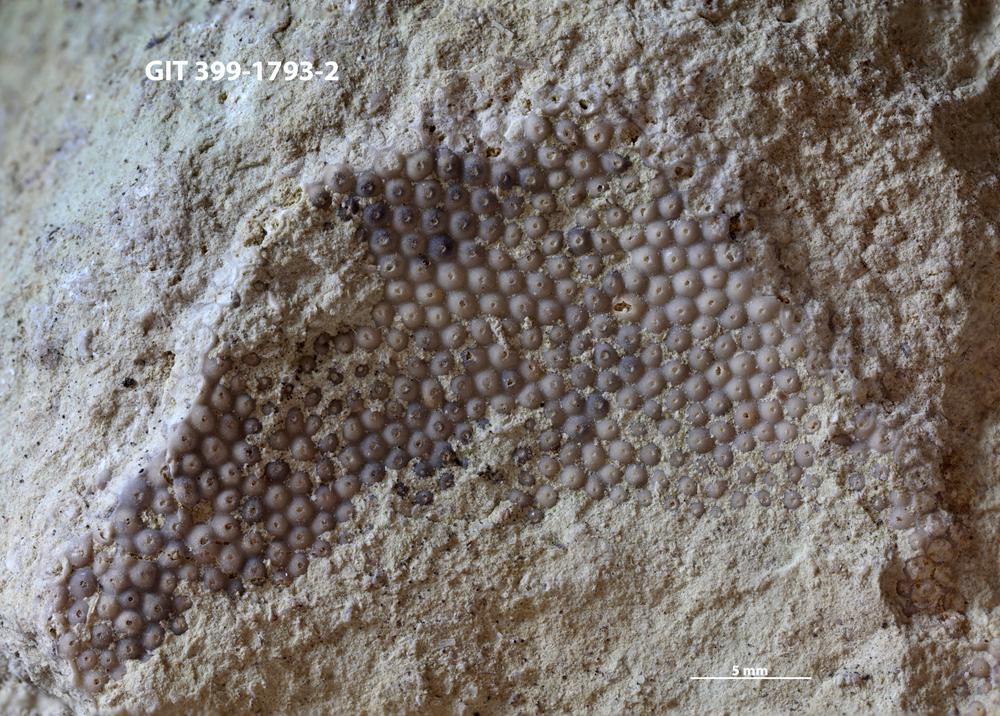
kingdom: Plantae
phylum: Chlorophyta
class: Ulvophyceae
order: Cyclocrinales
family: Cyclocrinaceae
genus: Mastopora
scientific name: Mastopora concava
